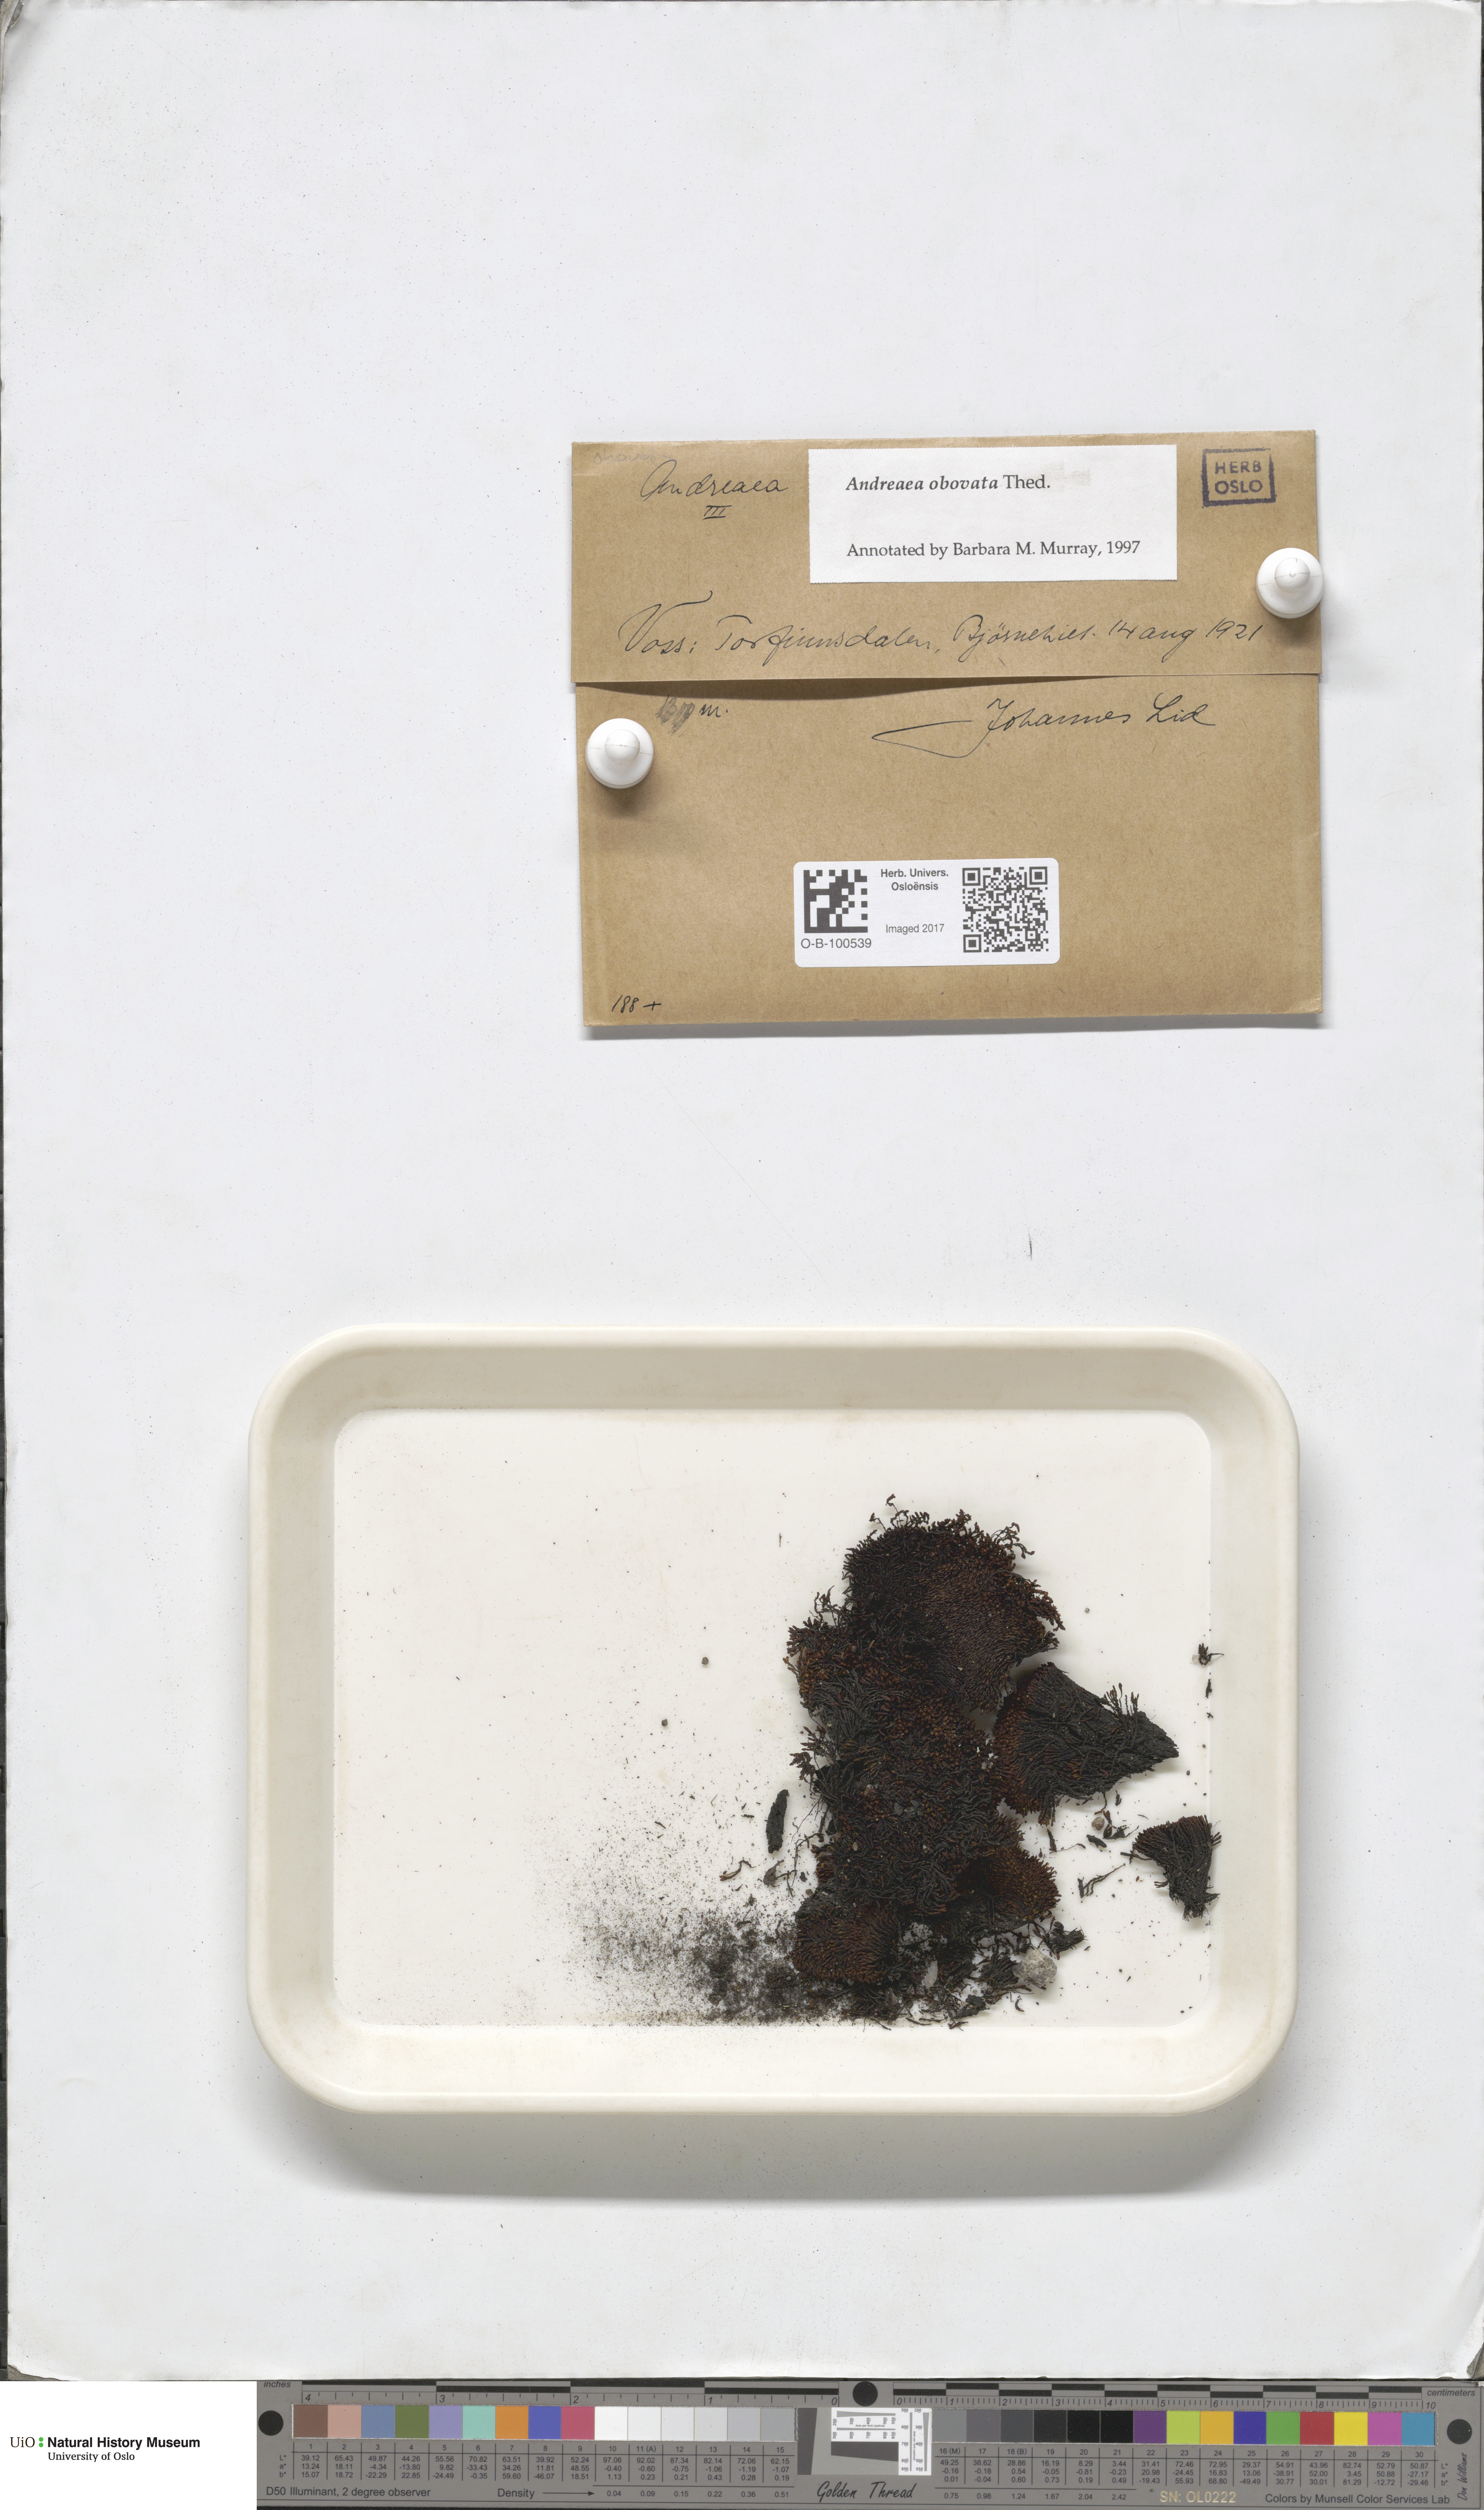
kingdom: Plantae
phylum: Bryophyta
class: Andreaeopsida
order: Andreaeales
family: Andreaeaceae
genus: Andreaea
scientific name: Andreaea alpina
